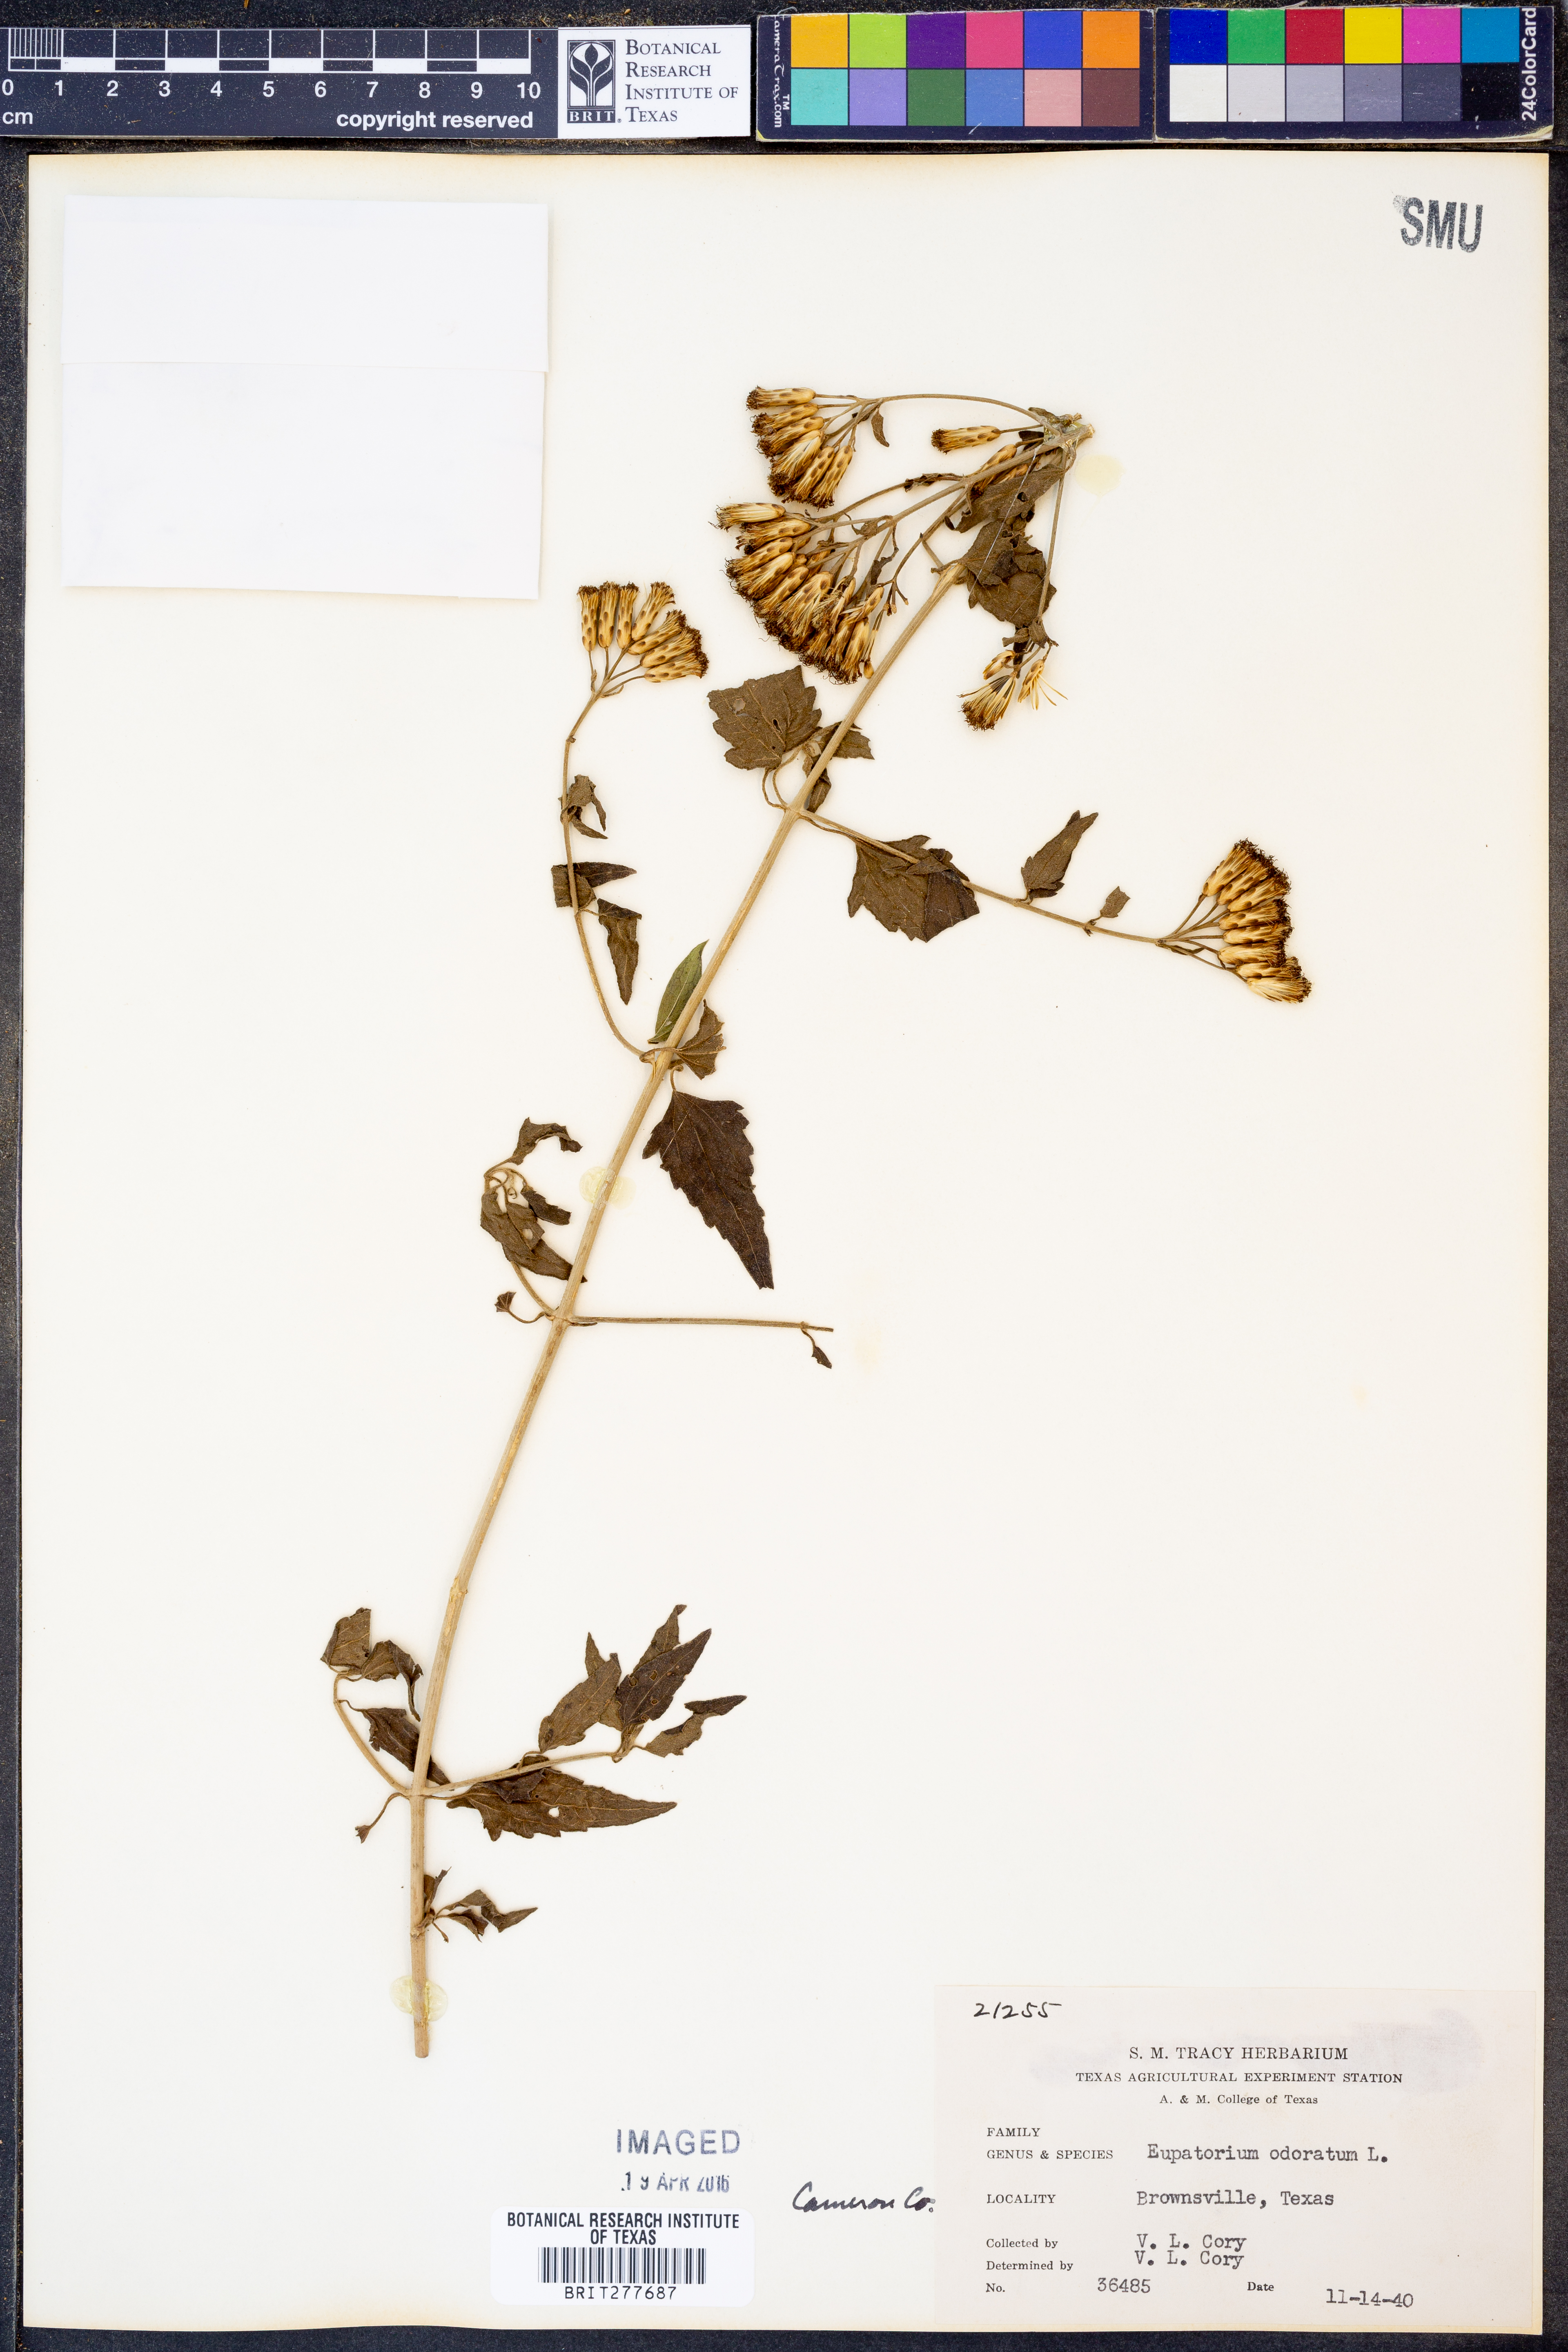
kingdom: Plantae
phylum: Tracheophyta
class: Magnoliopsida
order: Asterales
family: Asteraceae
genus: Ageratina
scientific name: Ageratina altissima
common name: White snakeroot
